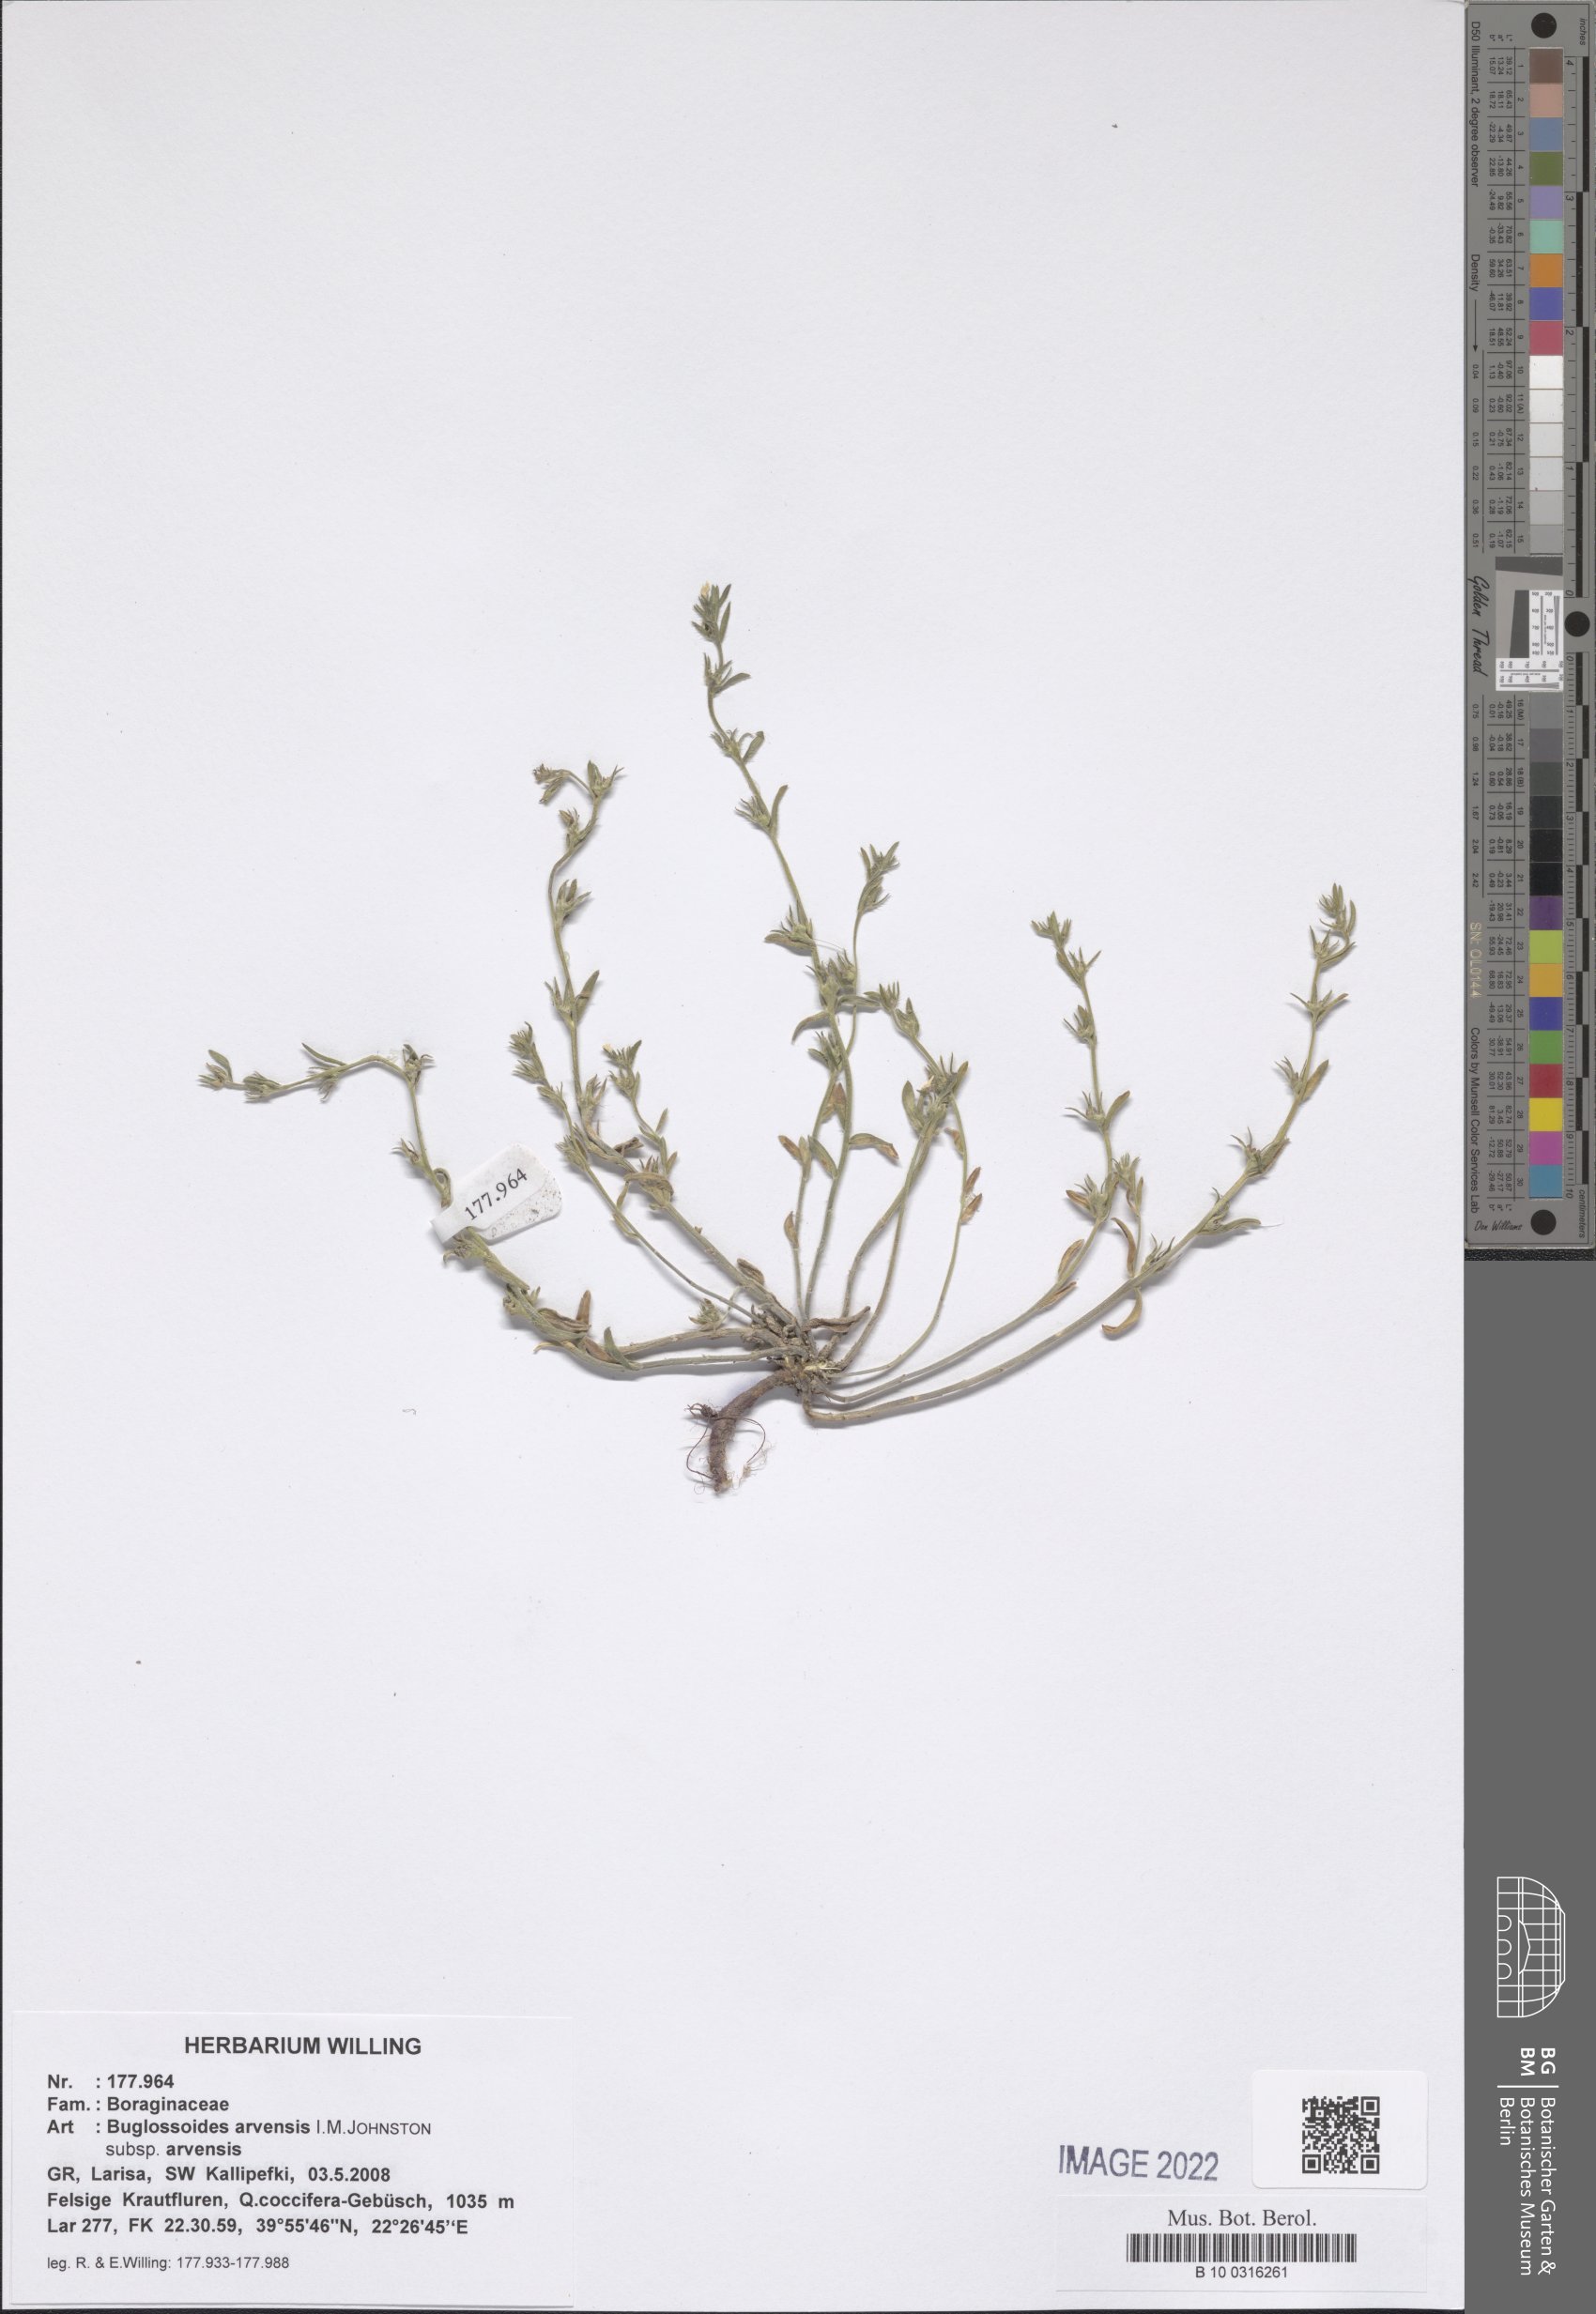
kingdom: Plantae
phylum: Tracheophyta
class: Magnoliopsida
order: Boraginales
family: Boraginaceae
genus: Buglossoides
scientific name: Buglossoides arvensis
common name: Corn gromwell
